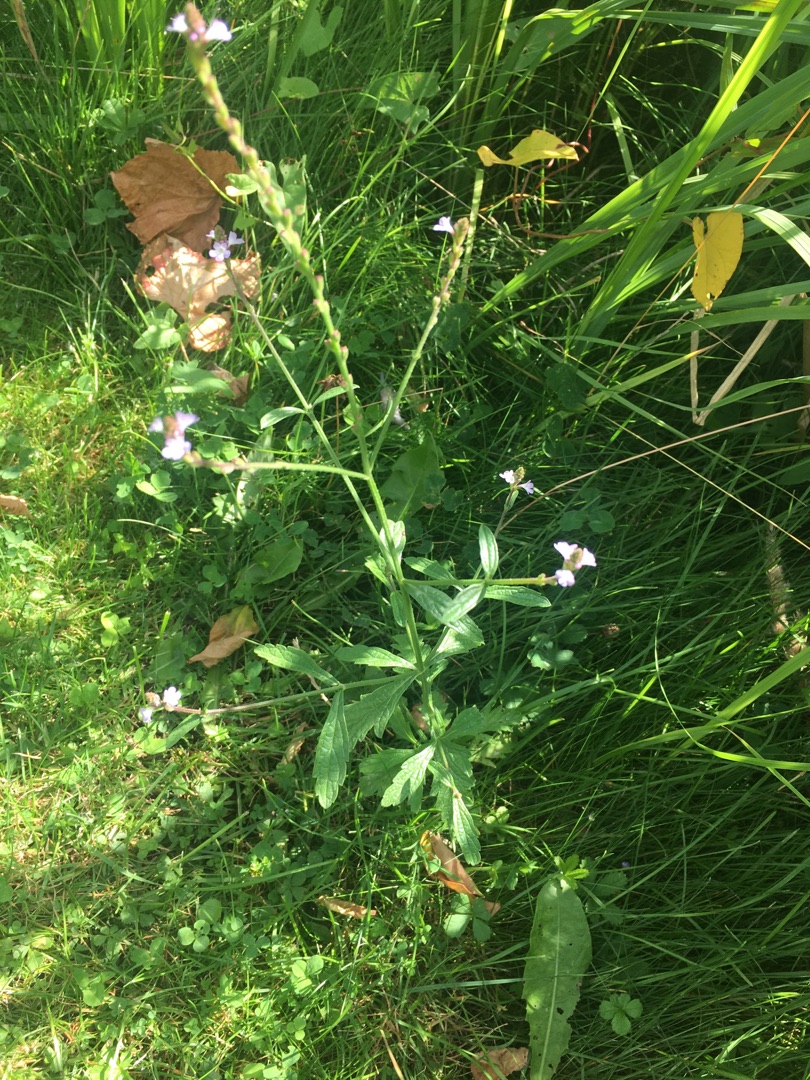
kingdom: Plantae
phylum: Tracheophyta
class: Magnoliopsida
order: Lamiales
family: Verbenaceae
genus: Verbena
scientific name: Verbena officinalis
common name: Læge-jernurt
